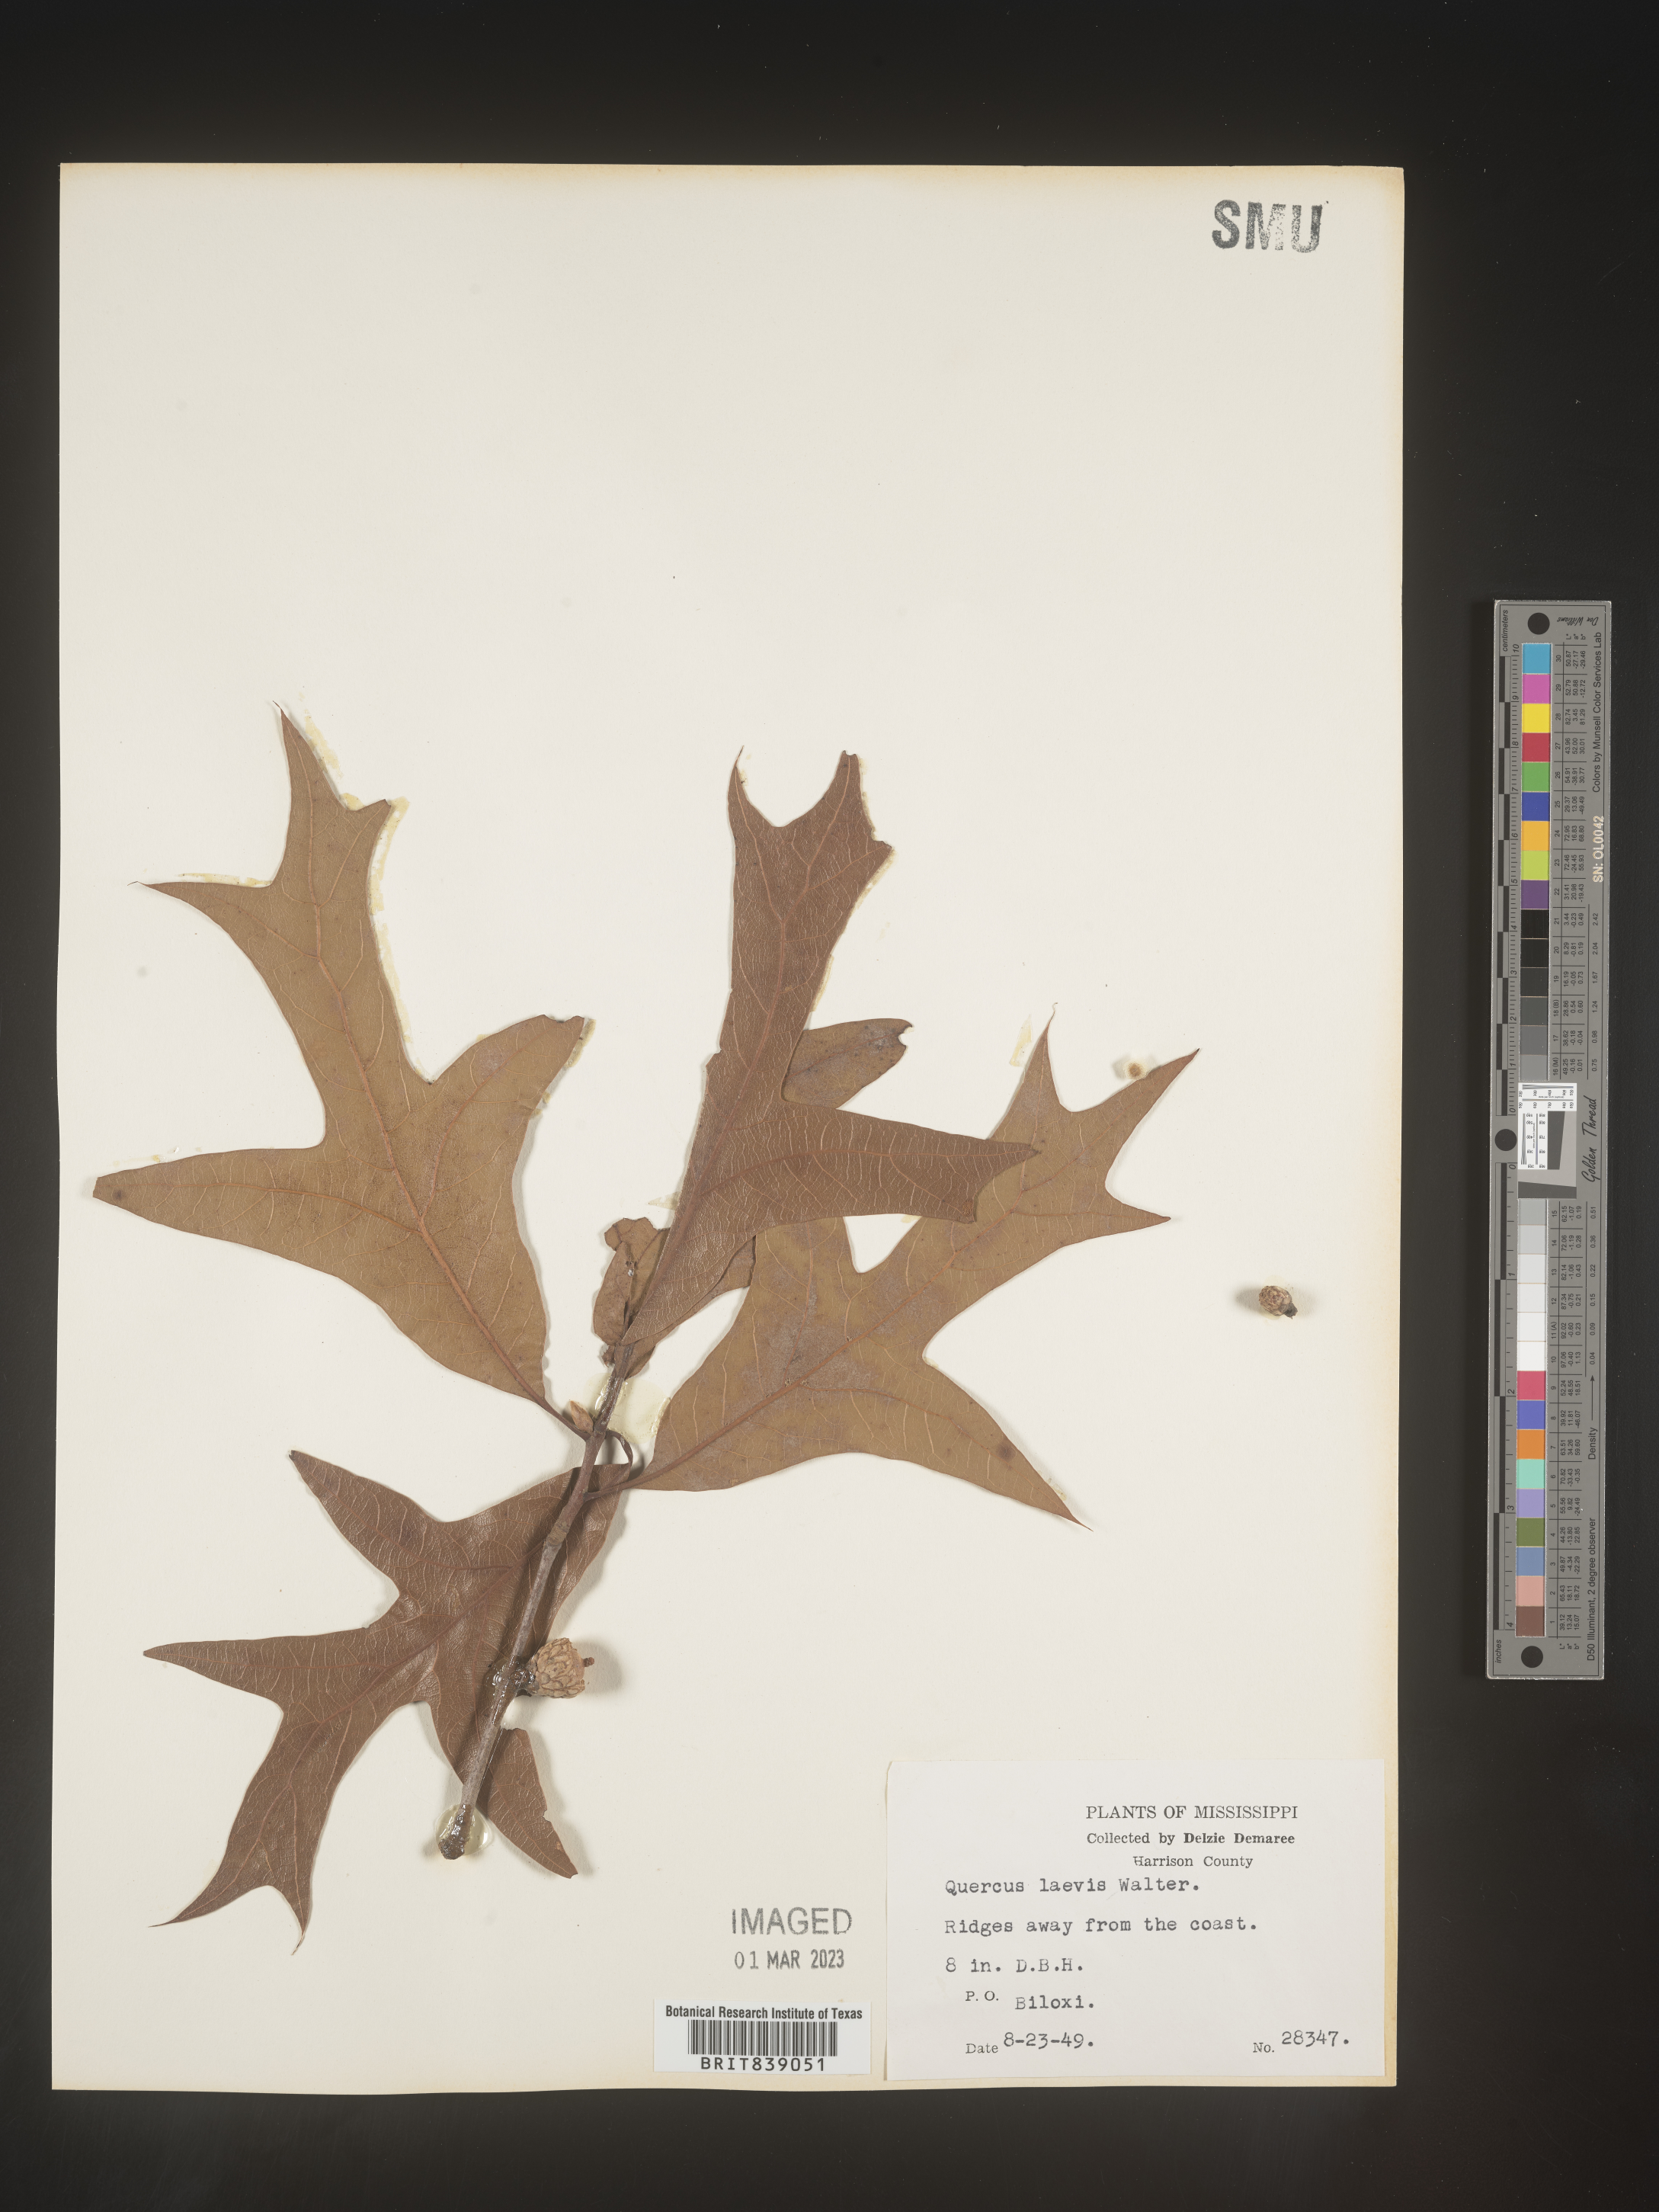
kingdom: Plantae
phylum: Tracheophyta
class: Magnoliopsida
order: Fagales
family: Fagaceae
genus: Quercus
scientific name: Quercus laevis
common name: Turkey oak
